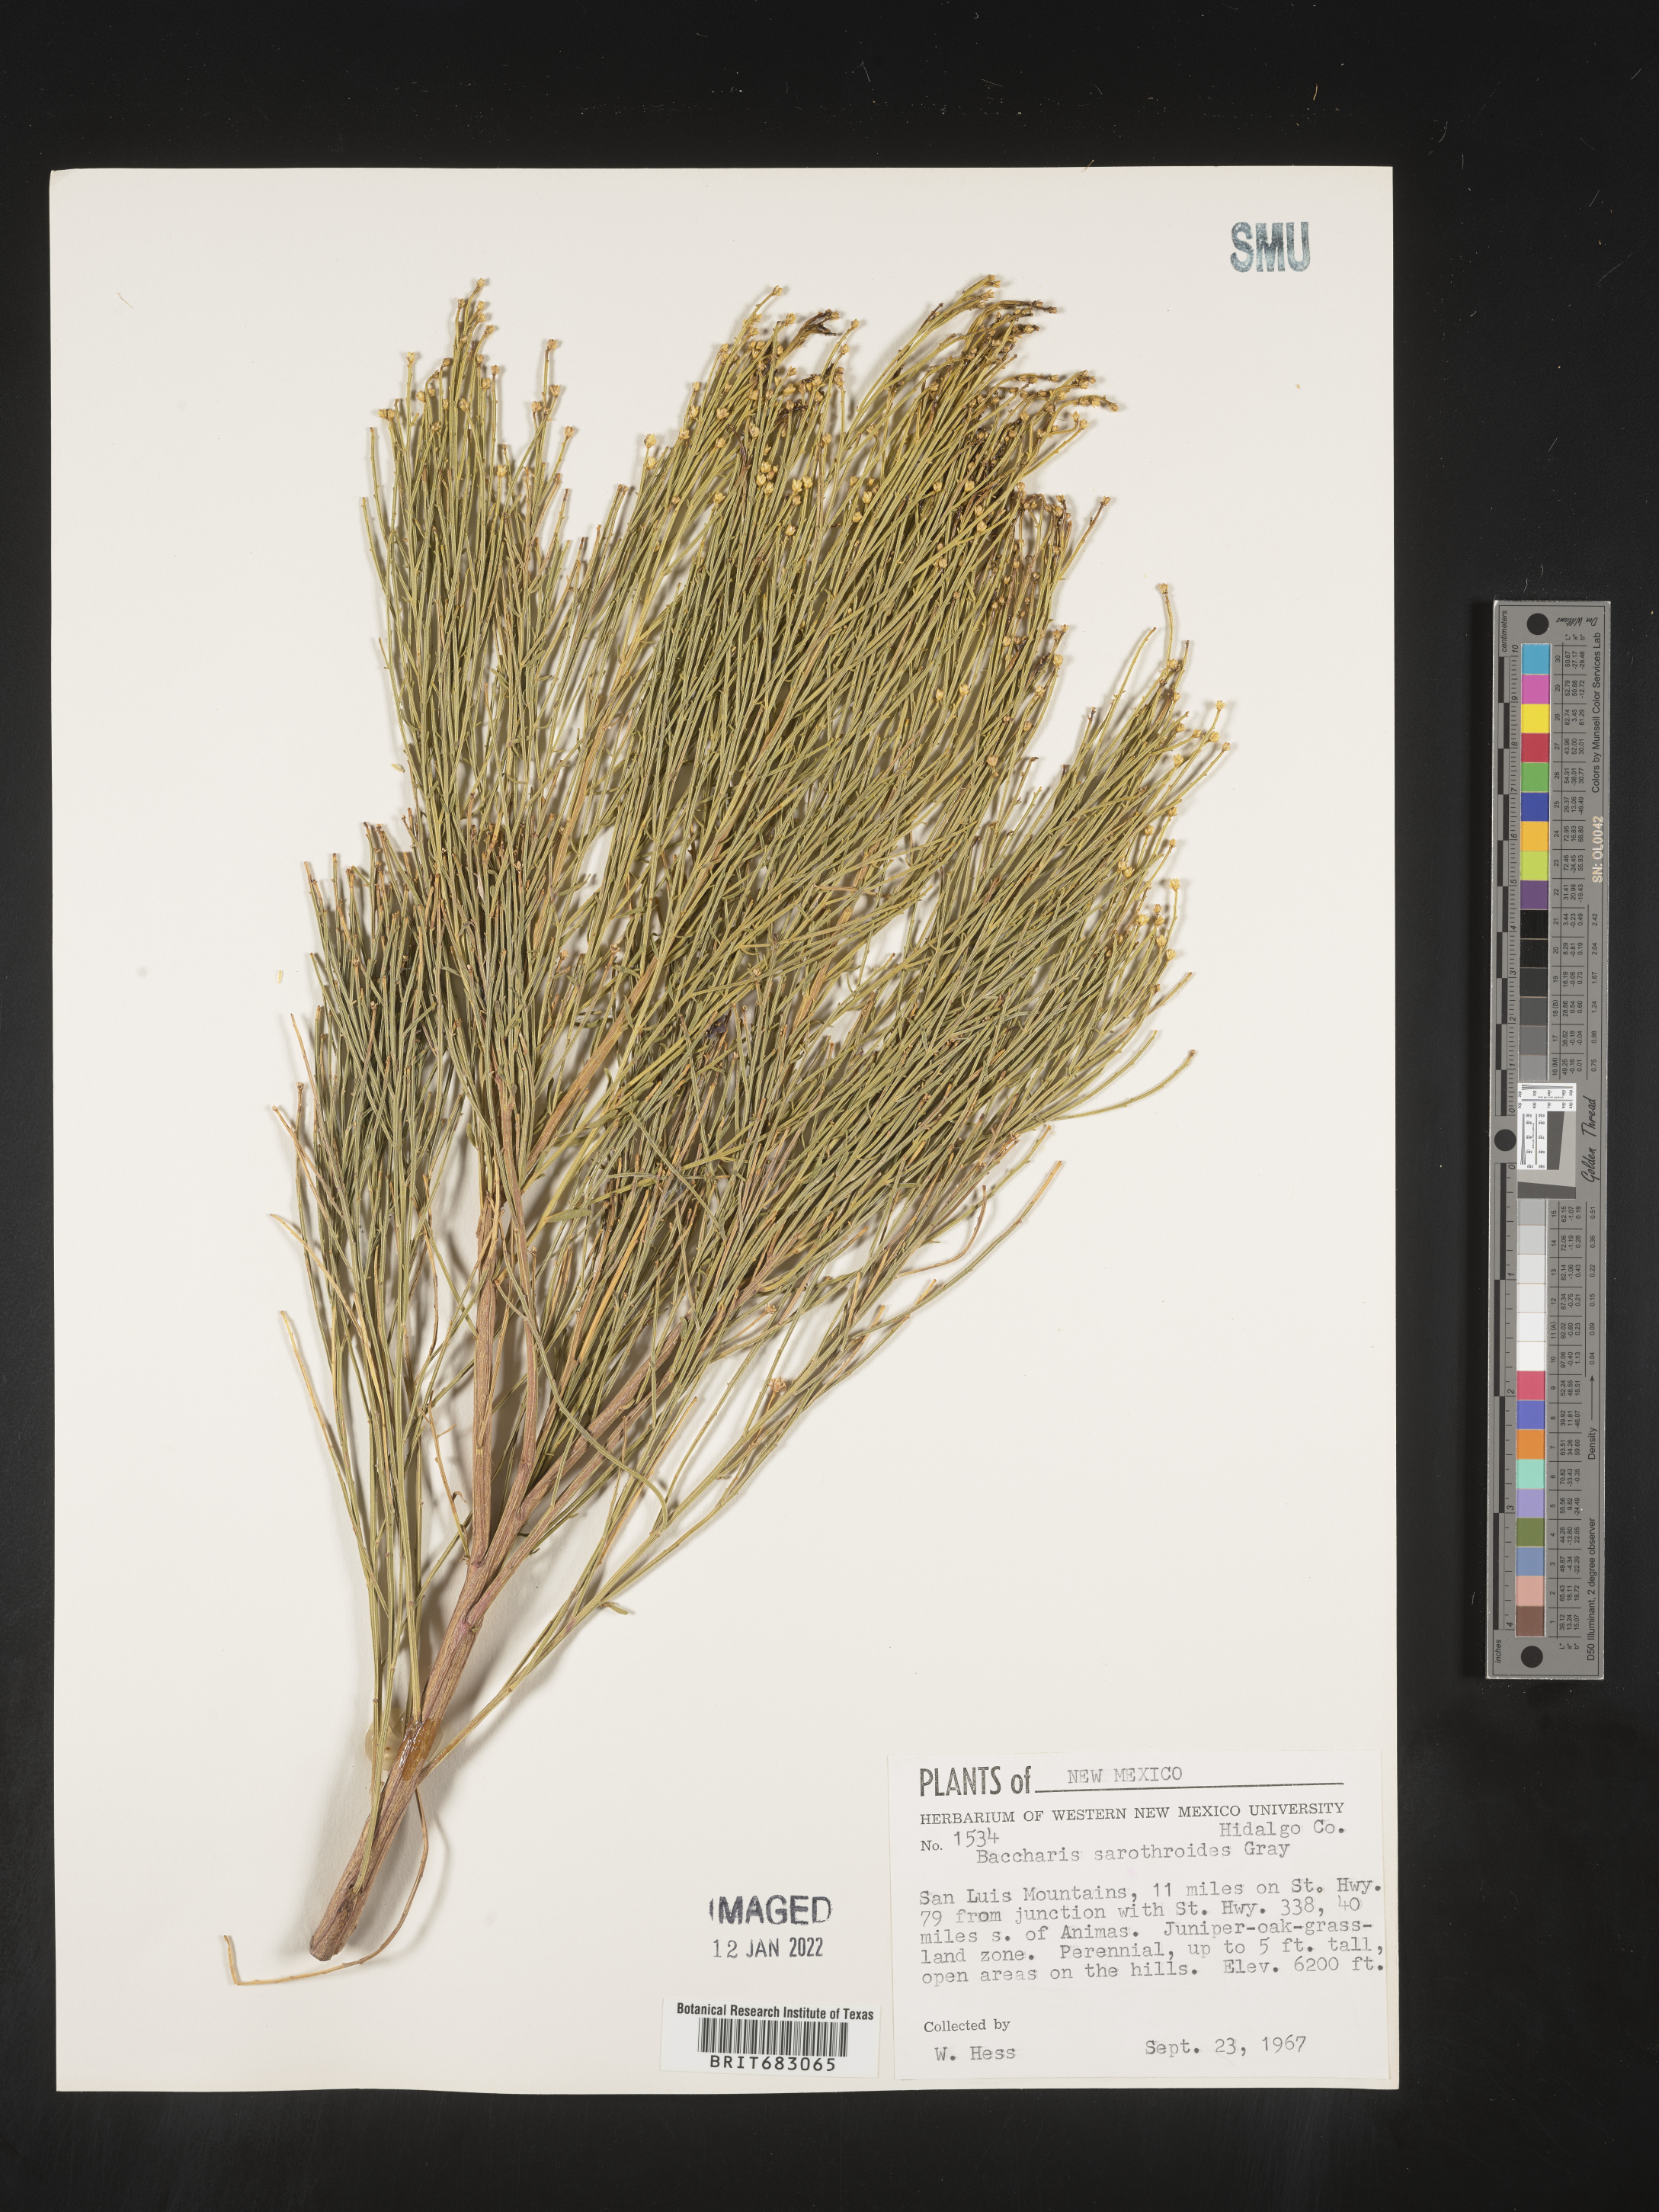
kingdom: Plantae
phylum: Tracheophyta
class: Magnoliopsida
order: Asterales
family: Asteraceae
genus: Baccharis
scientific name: Baccharis sarothroides
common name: Desert-broom
